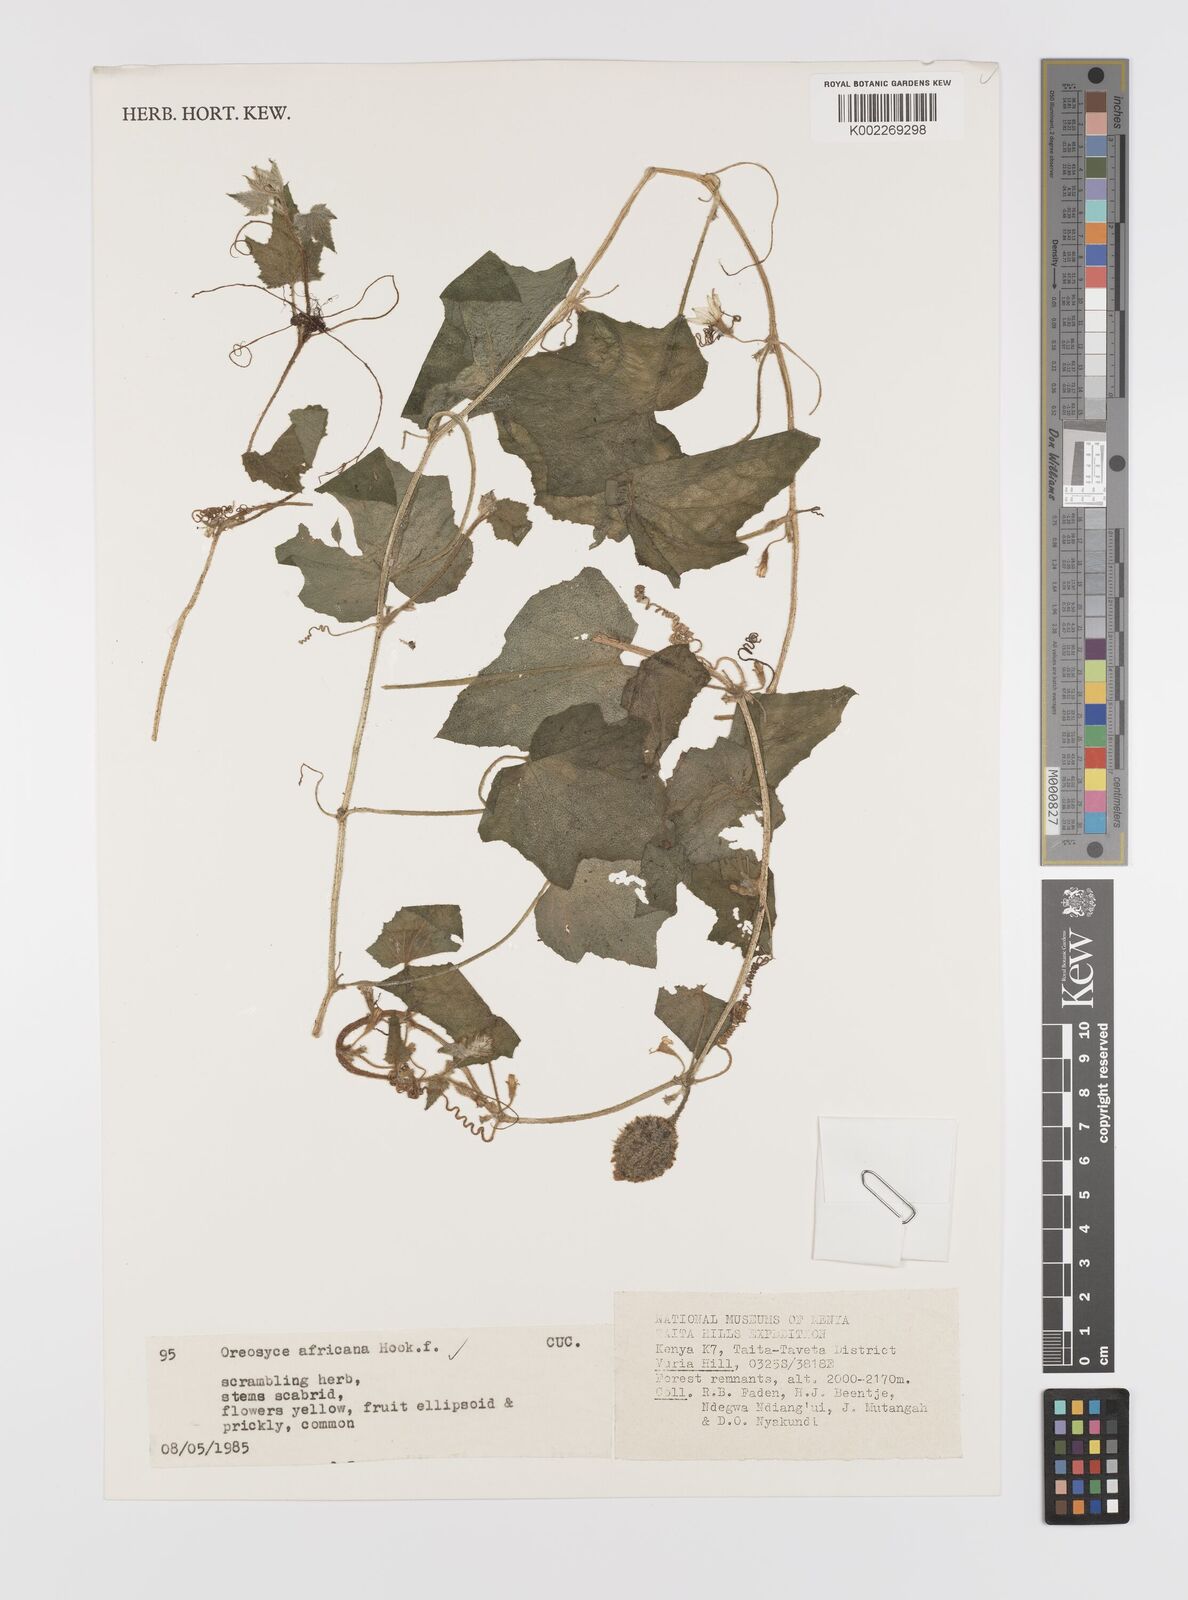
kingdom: Plantae
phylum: Tracheophyta
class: Magnoliopsida
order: Cucurbitales
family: Cucurbitaceae
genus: Cucumis
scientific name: Cucumis oreosyce
